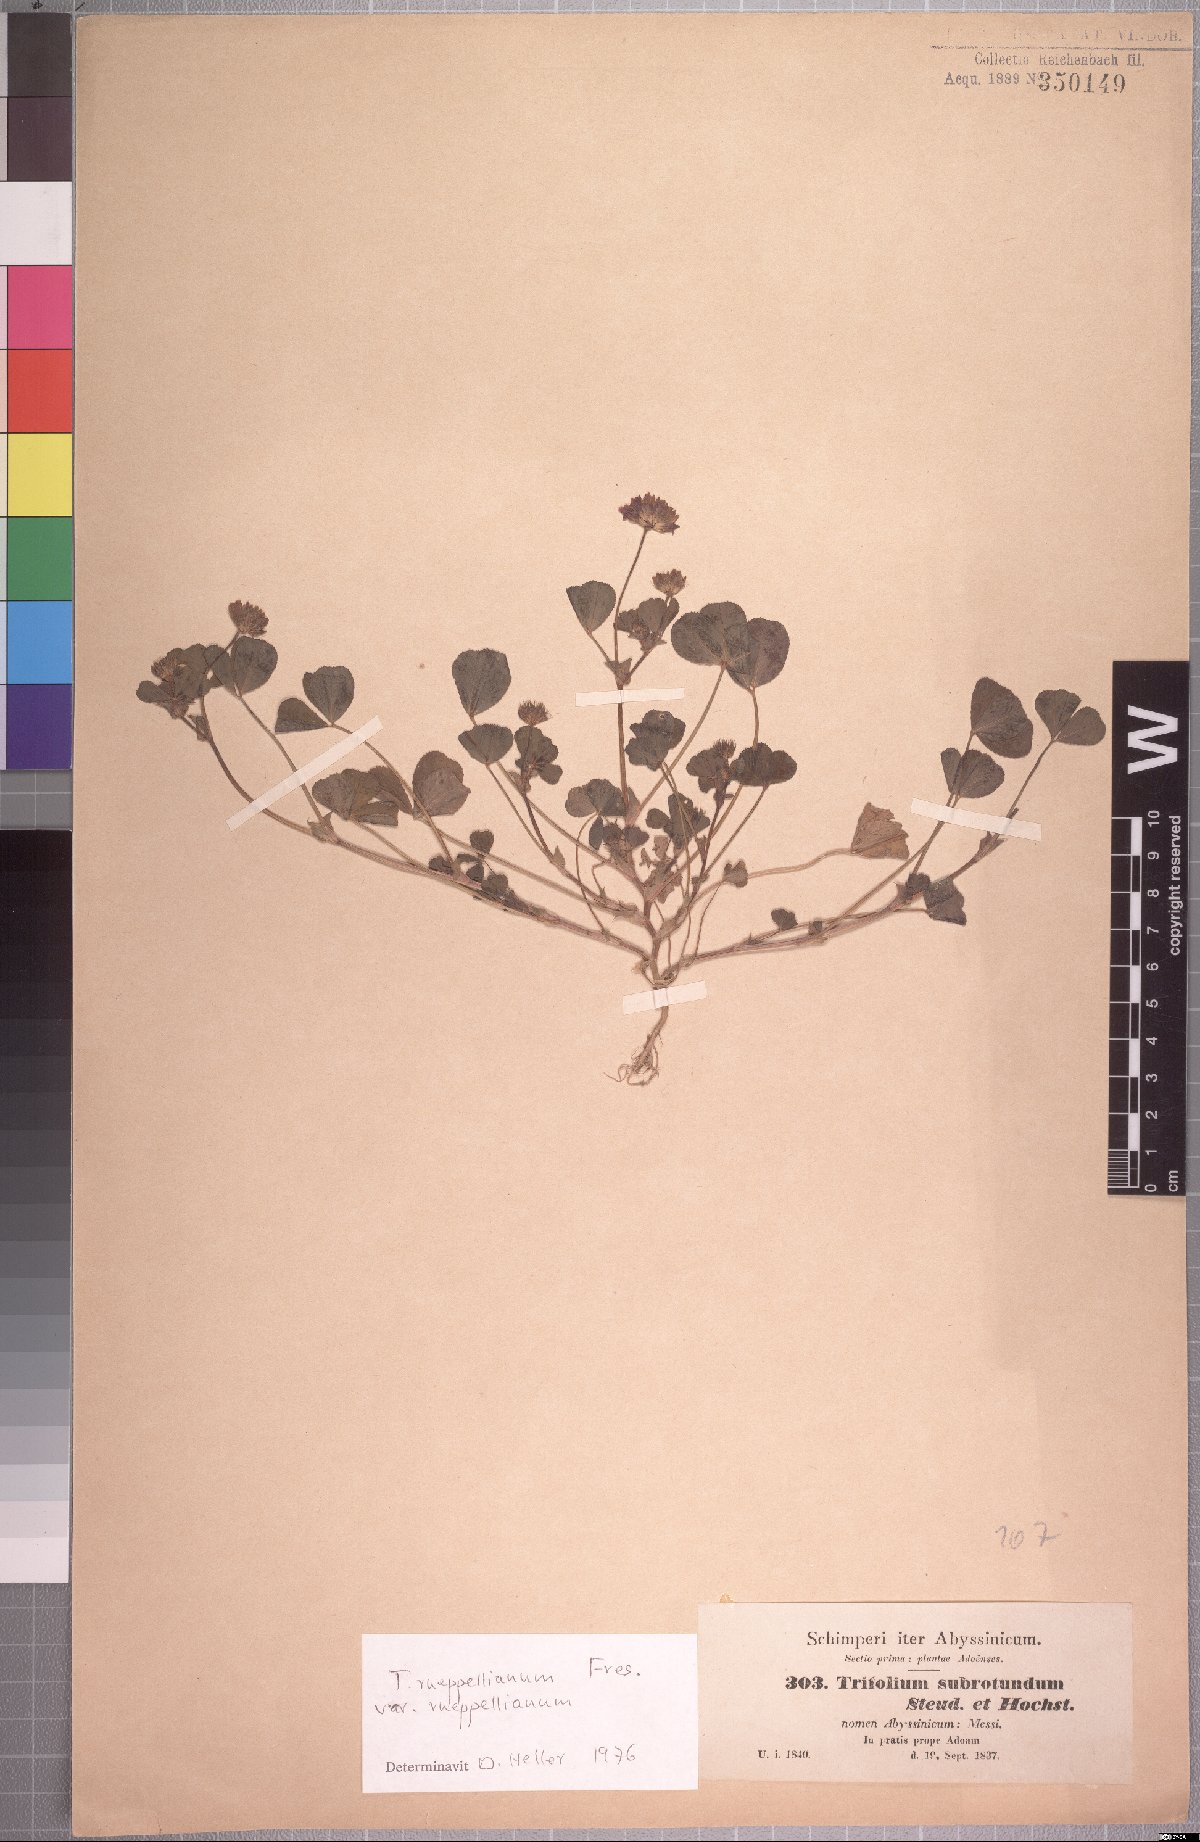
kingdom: Plantae
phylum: Tracheophyta
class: Magnoliopsida
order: Fabales
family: Fabaceae
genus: Trifolium
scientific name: Trifolium rueppellianum
